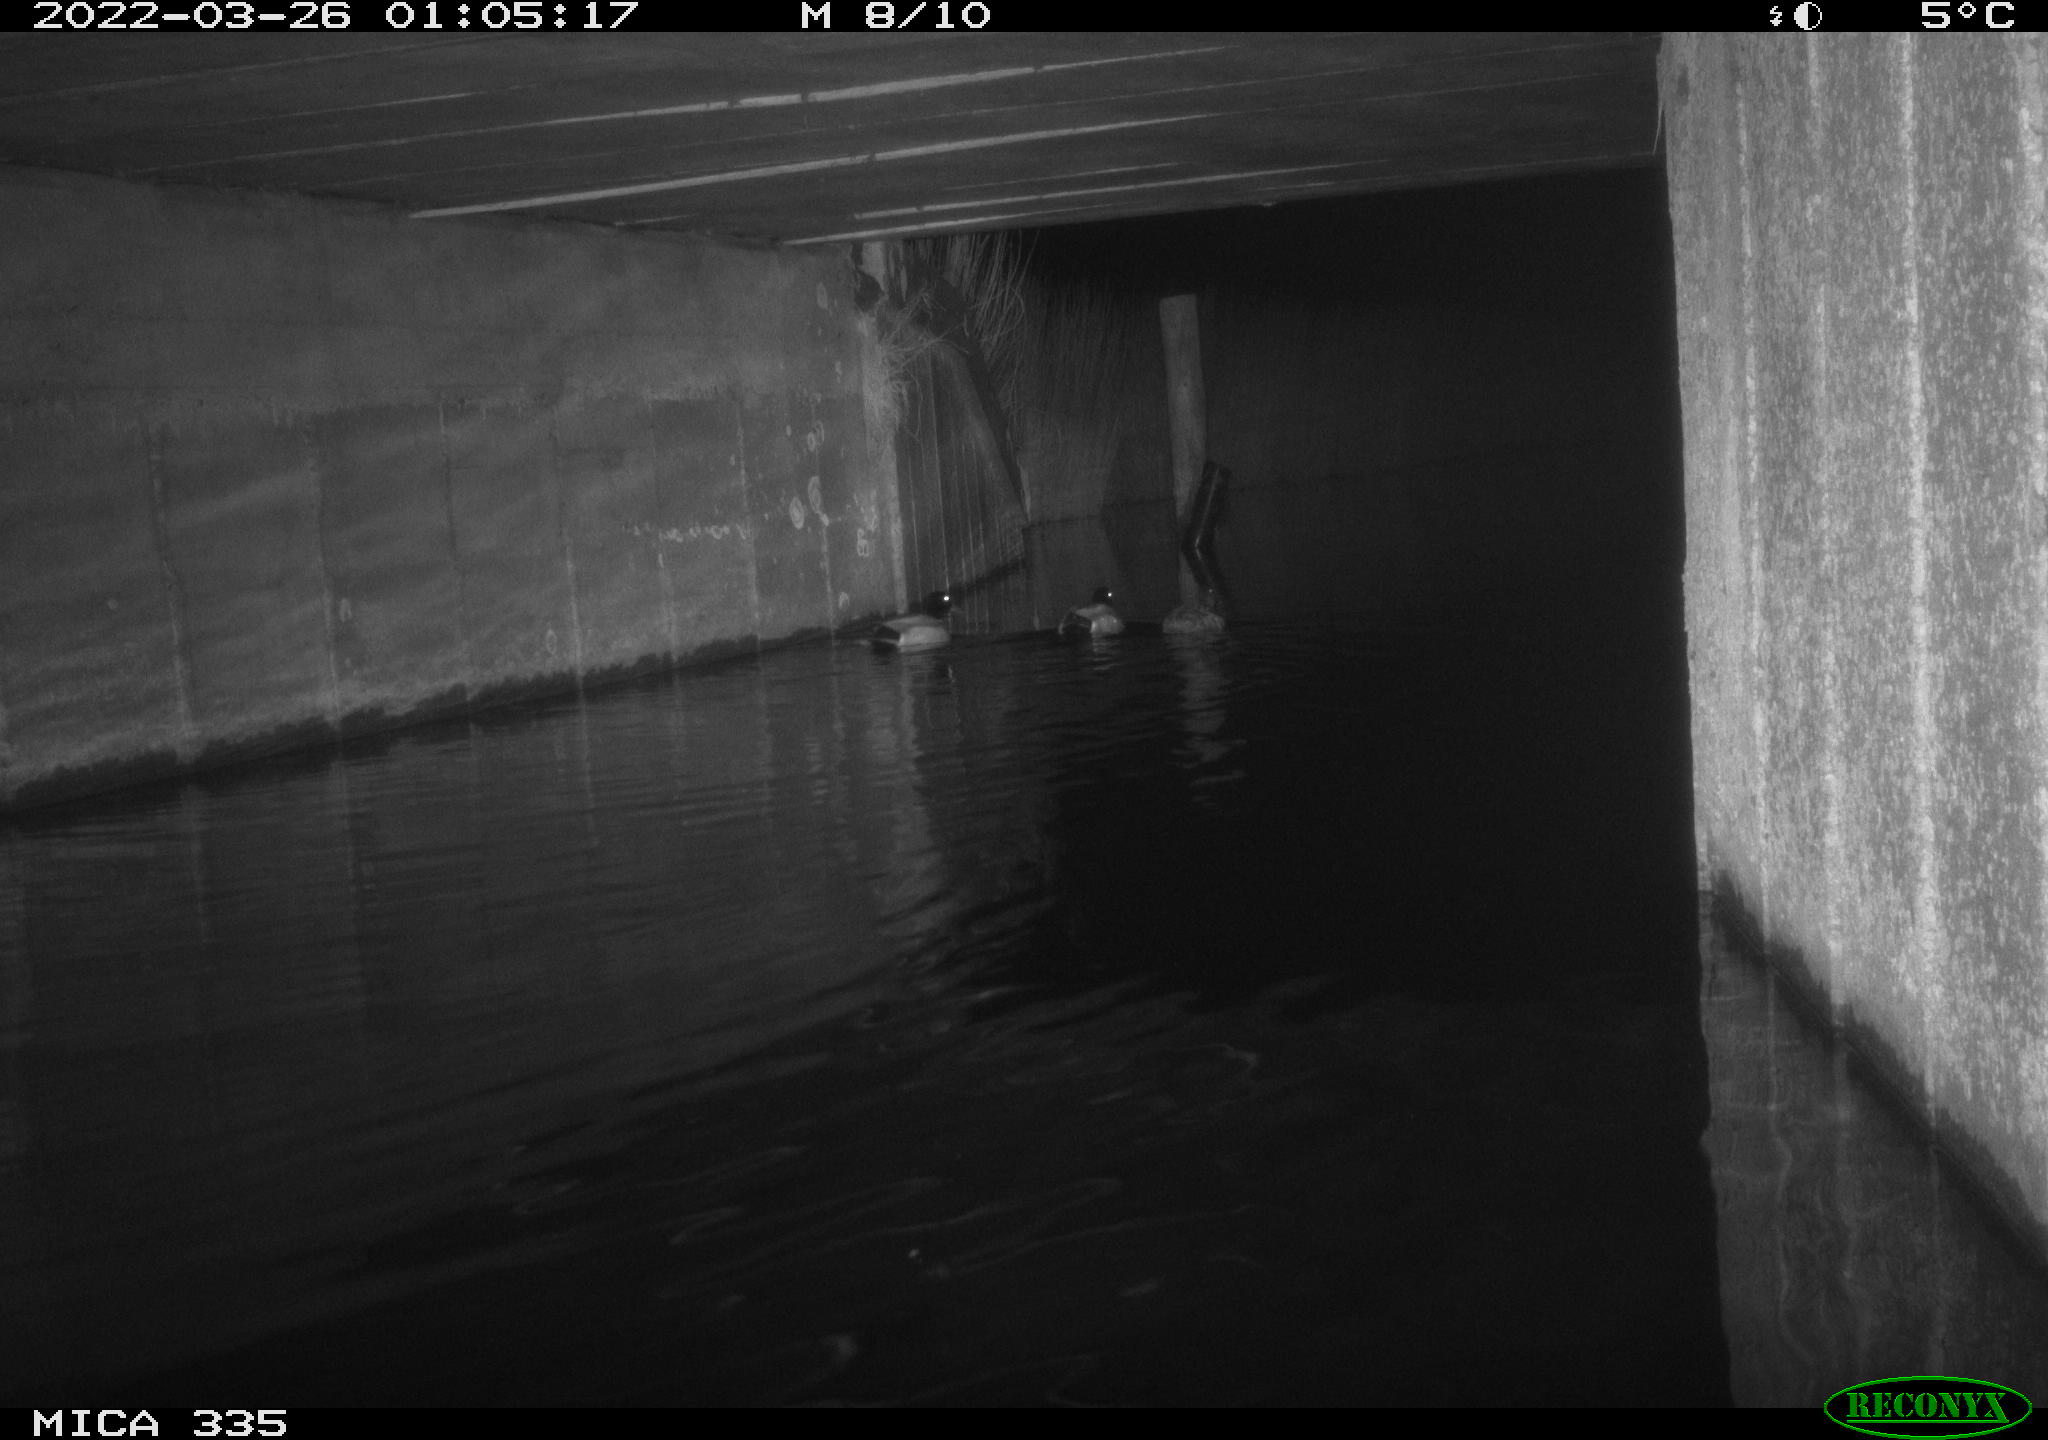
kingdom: Animalia
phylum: Chordata
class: Aves
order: Anseriformes
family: Anatidae
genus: Anas
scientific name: Anas platyrhynchos
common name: Mallard
